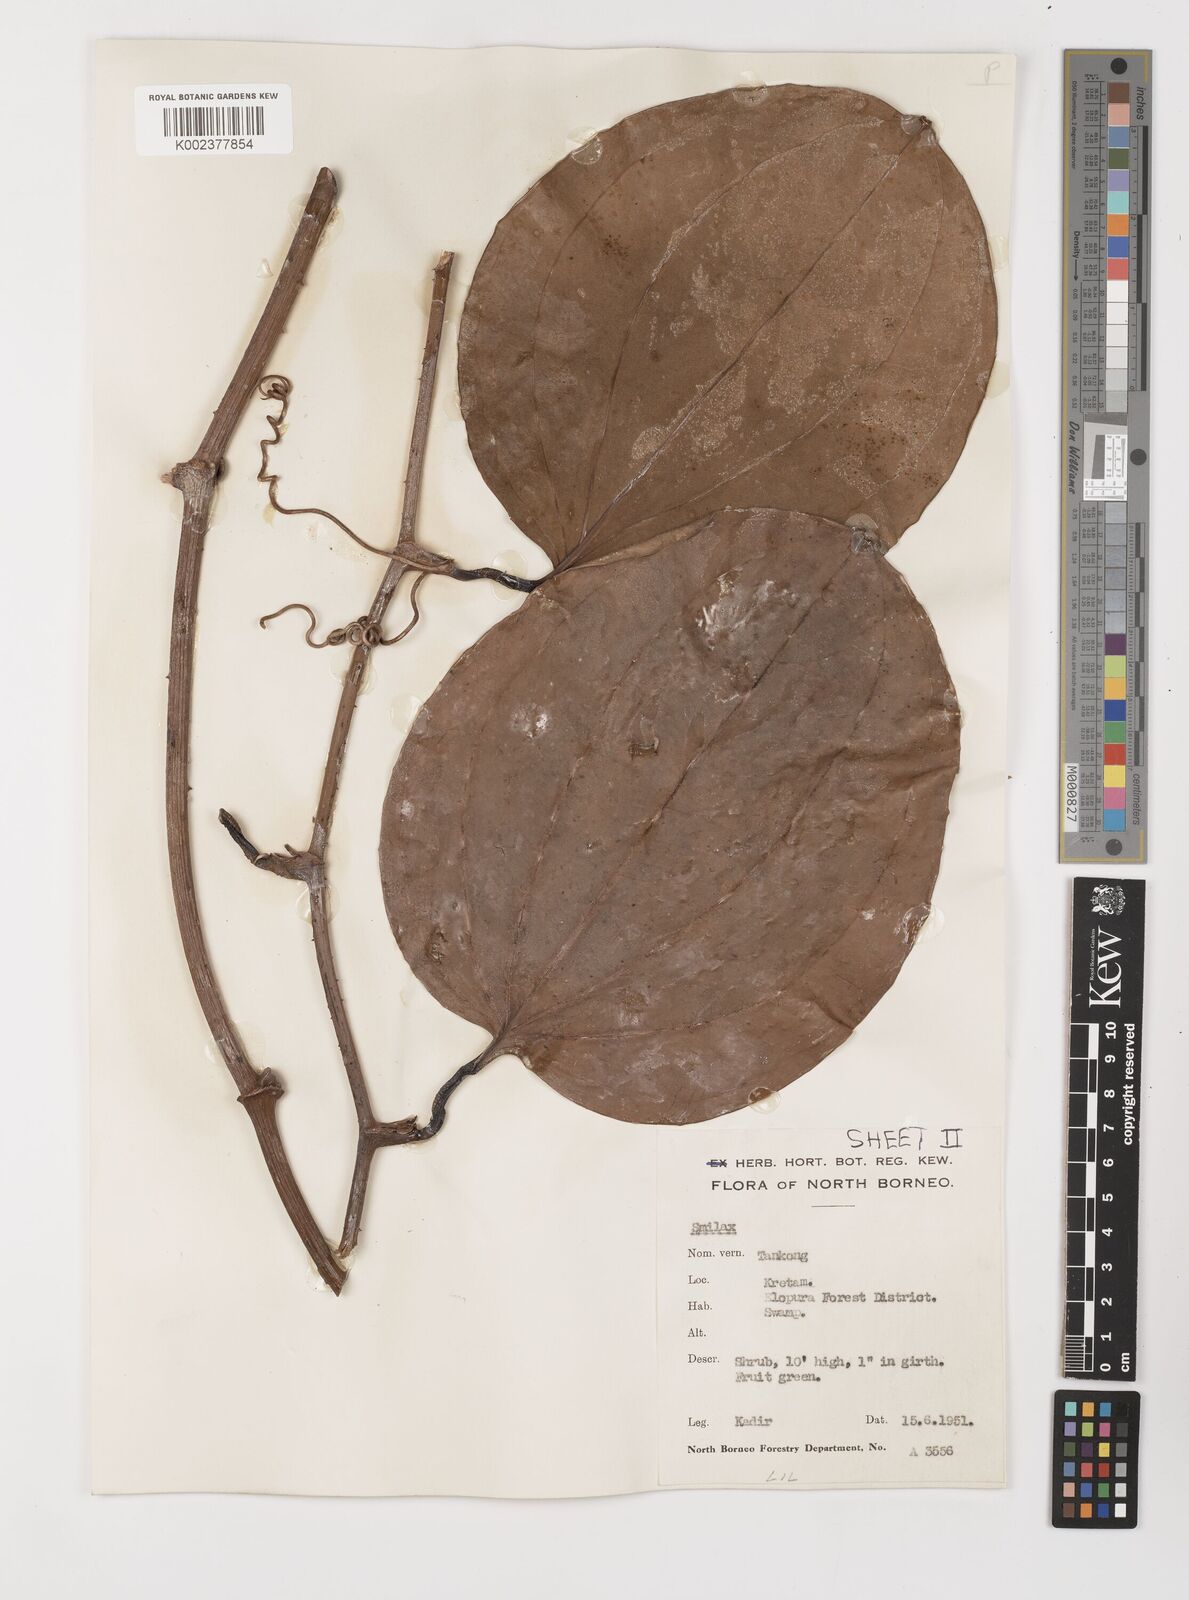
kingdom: Plantae
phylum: Tracheophyta
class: Liliopsida
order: Liliales
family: Smilacaceae
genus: Smilax
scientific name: Smilax
